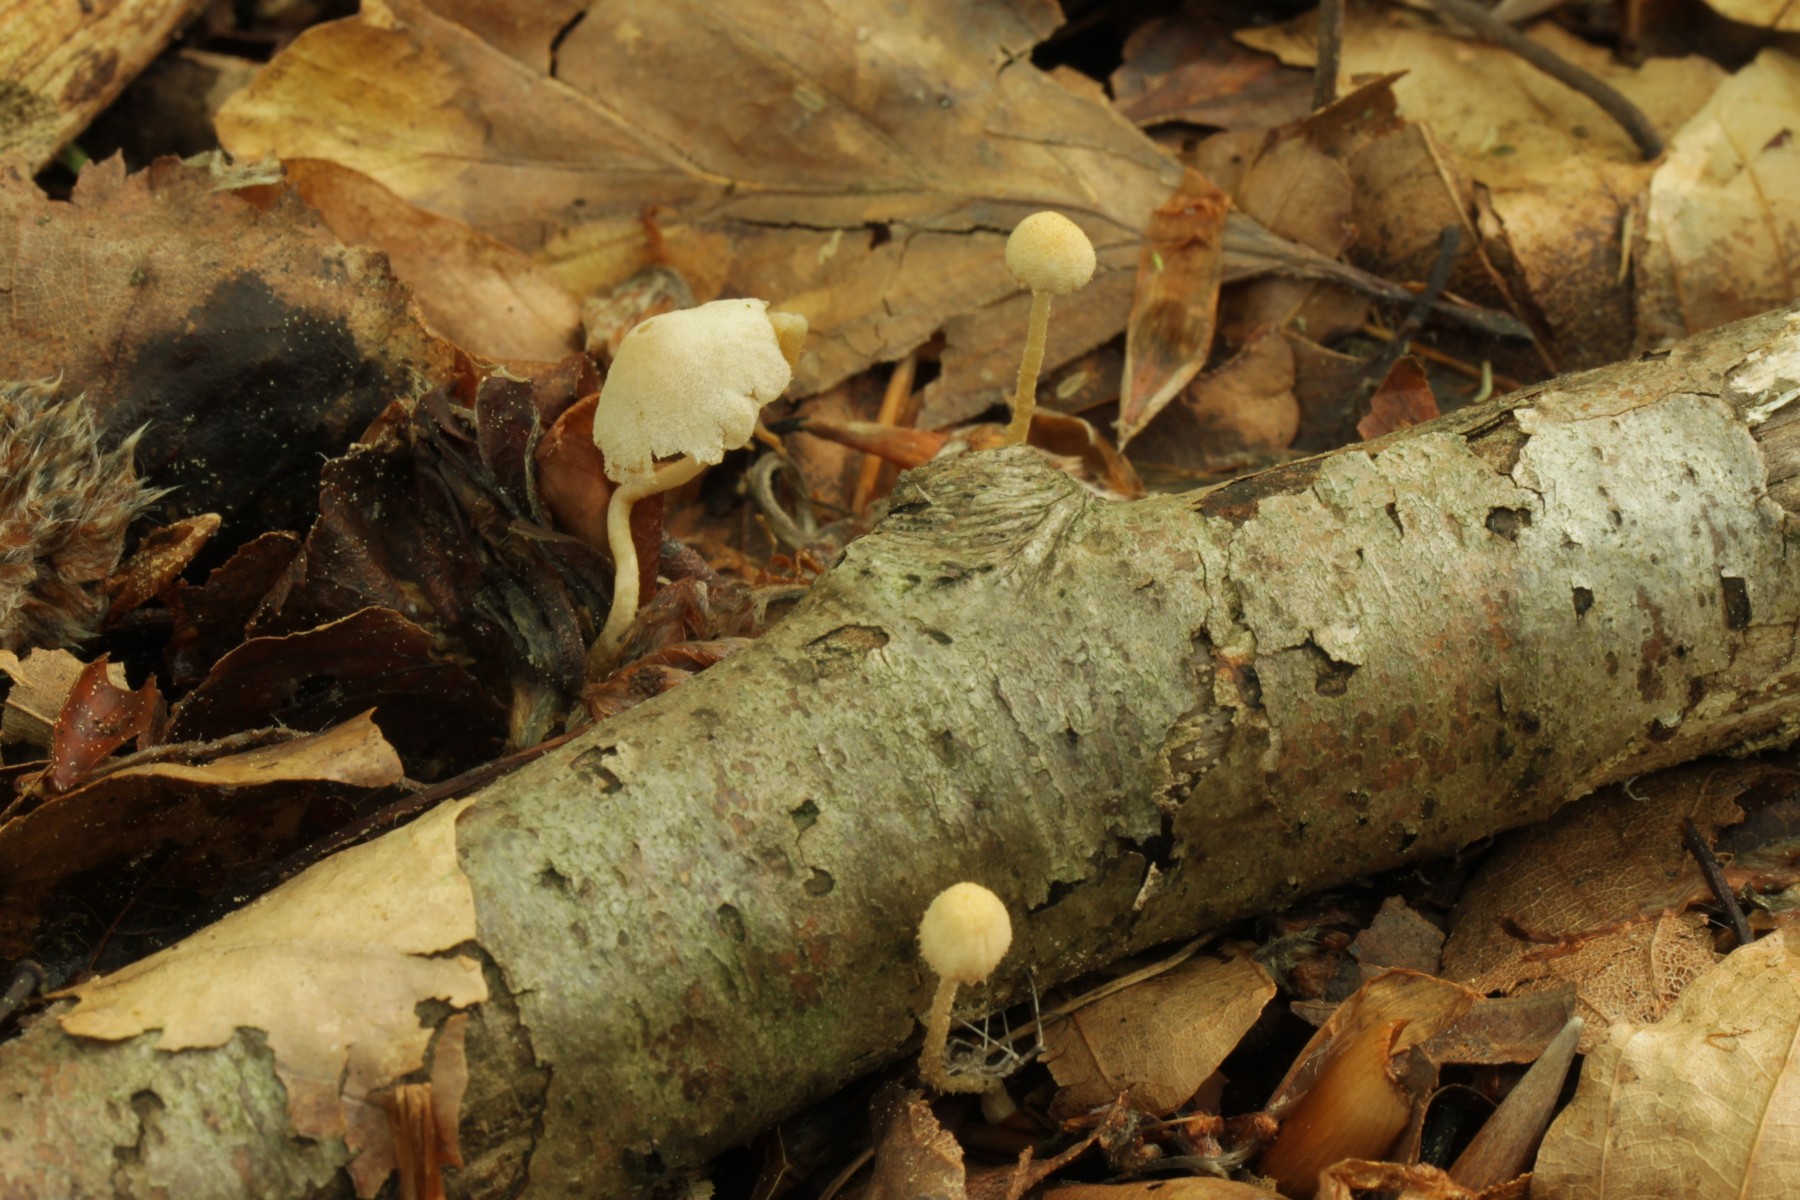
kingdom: Fungi
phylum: Basidiomycota
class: Agaricomycetes
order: Agaricales
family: Tubariaceae
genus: Flammulaster
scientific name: Flammulaster carpophilus
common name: bøge-grynskælhat
